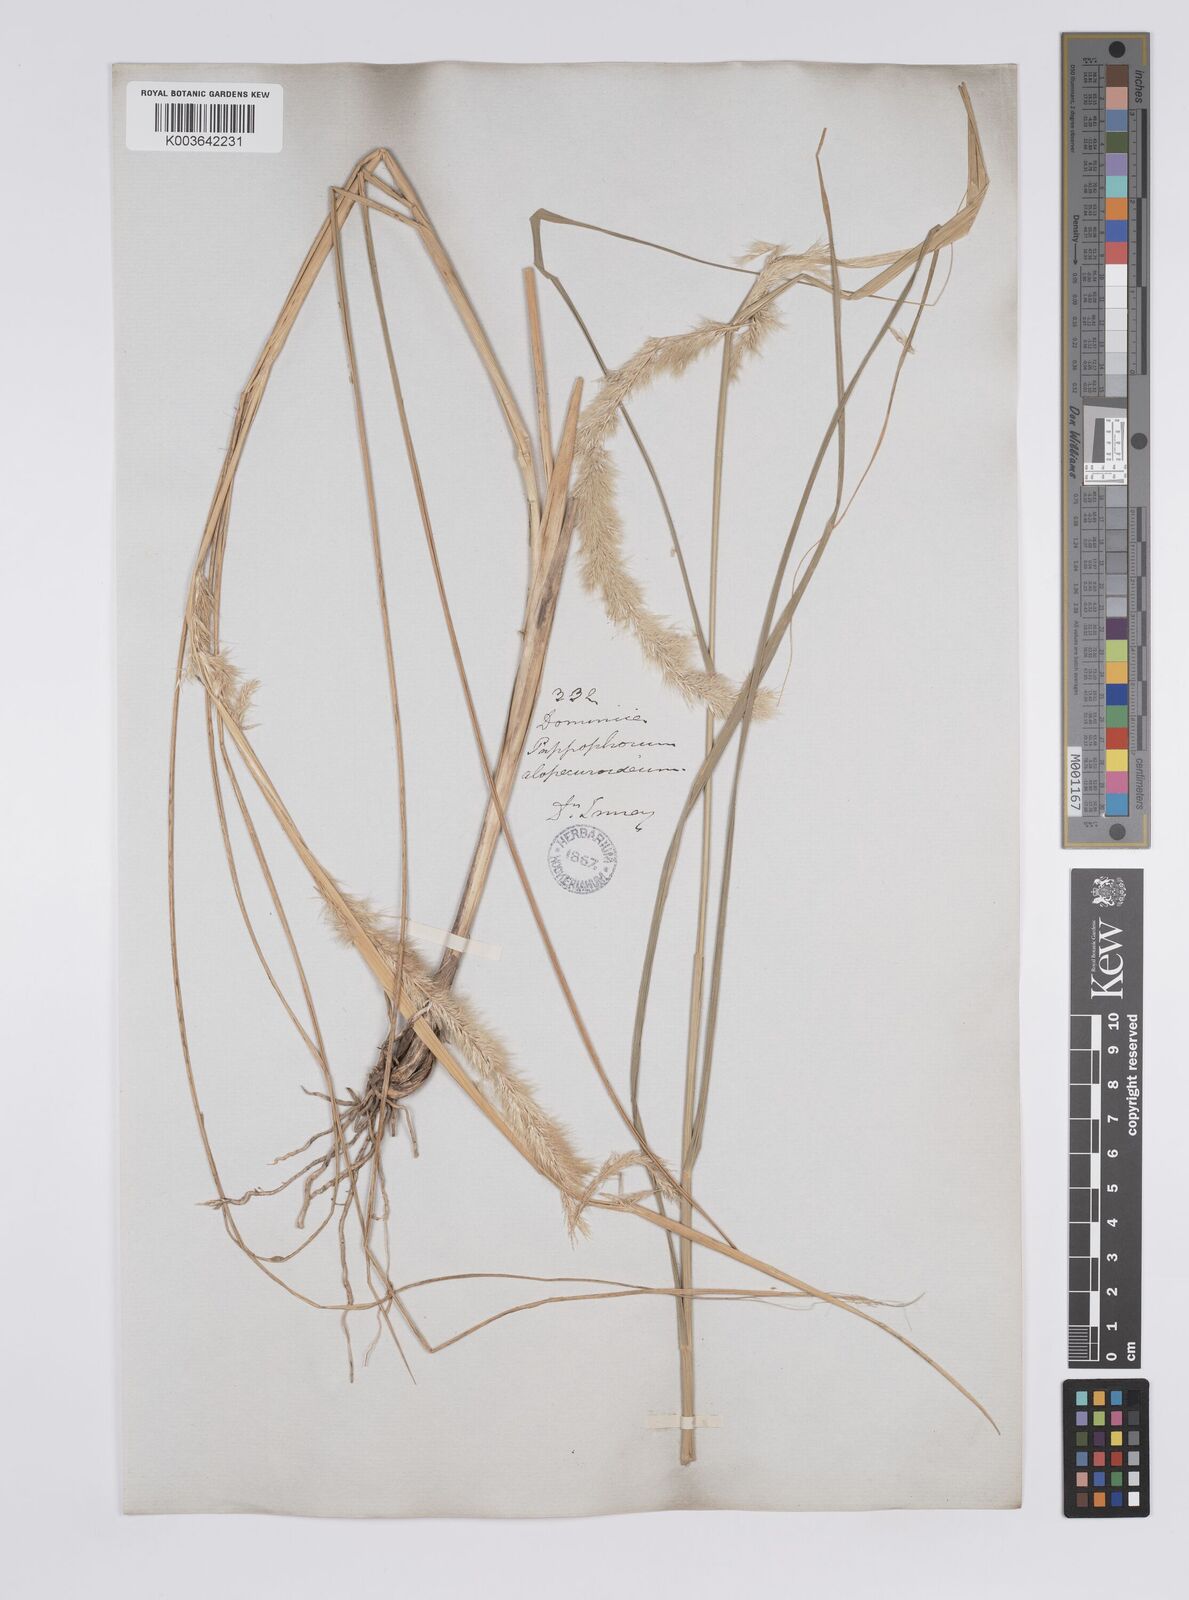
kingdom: Plantae
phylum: Tracheophyta
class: Liliopsida
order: Poales
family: Poaceae
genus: Pappophorum
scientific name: Pappophorum pappiferum
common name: Crabgrass
